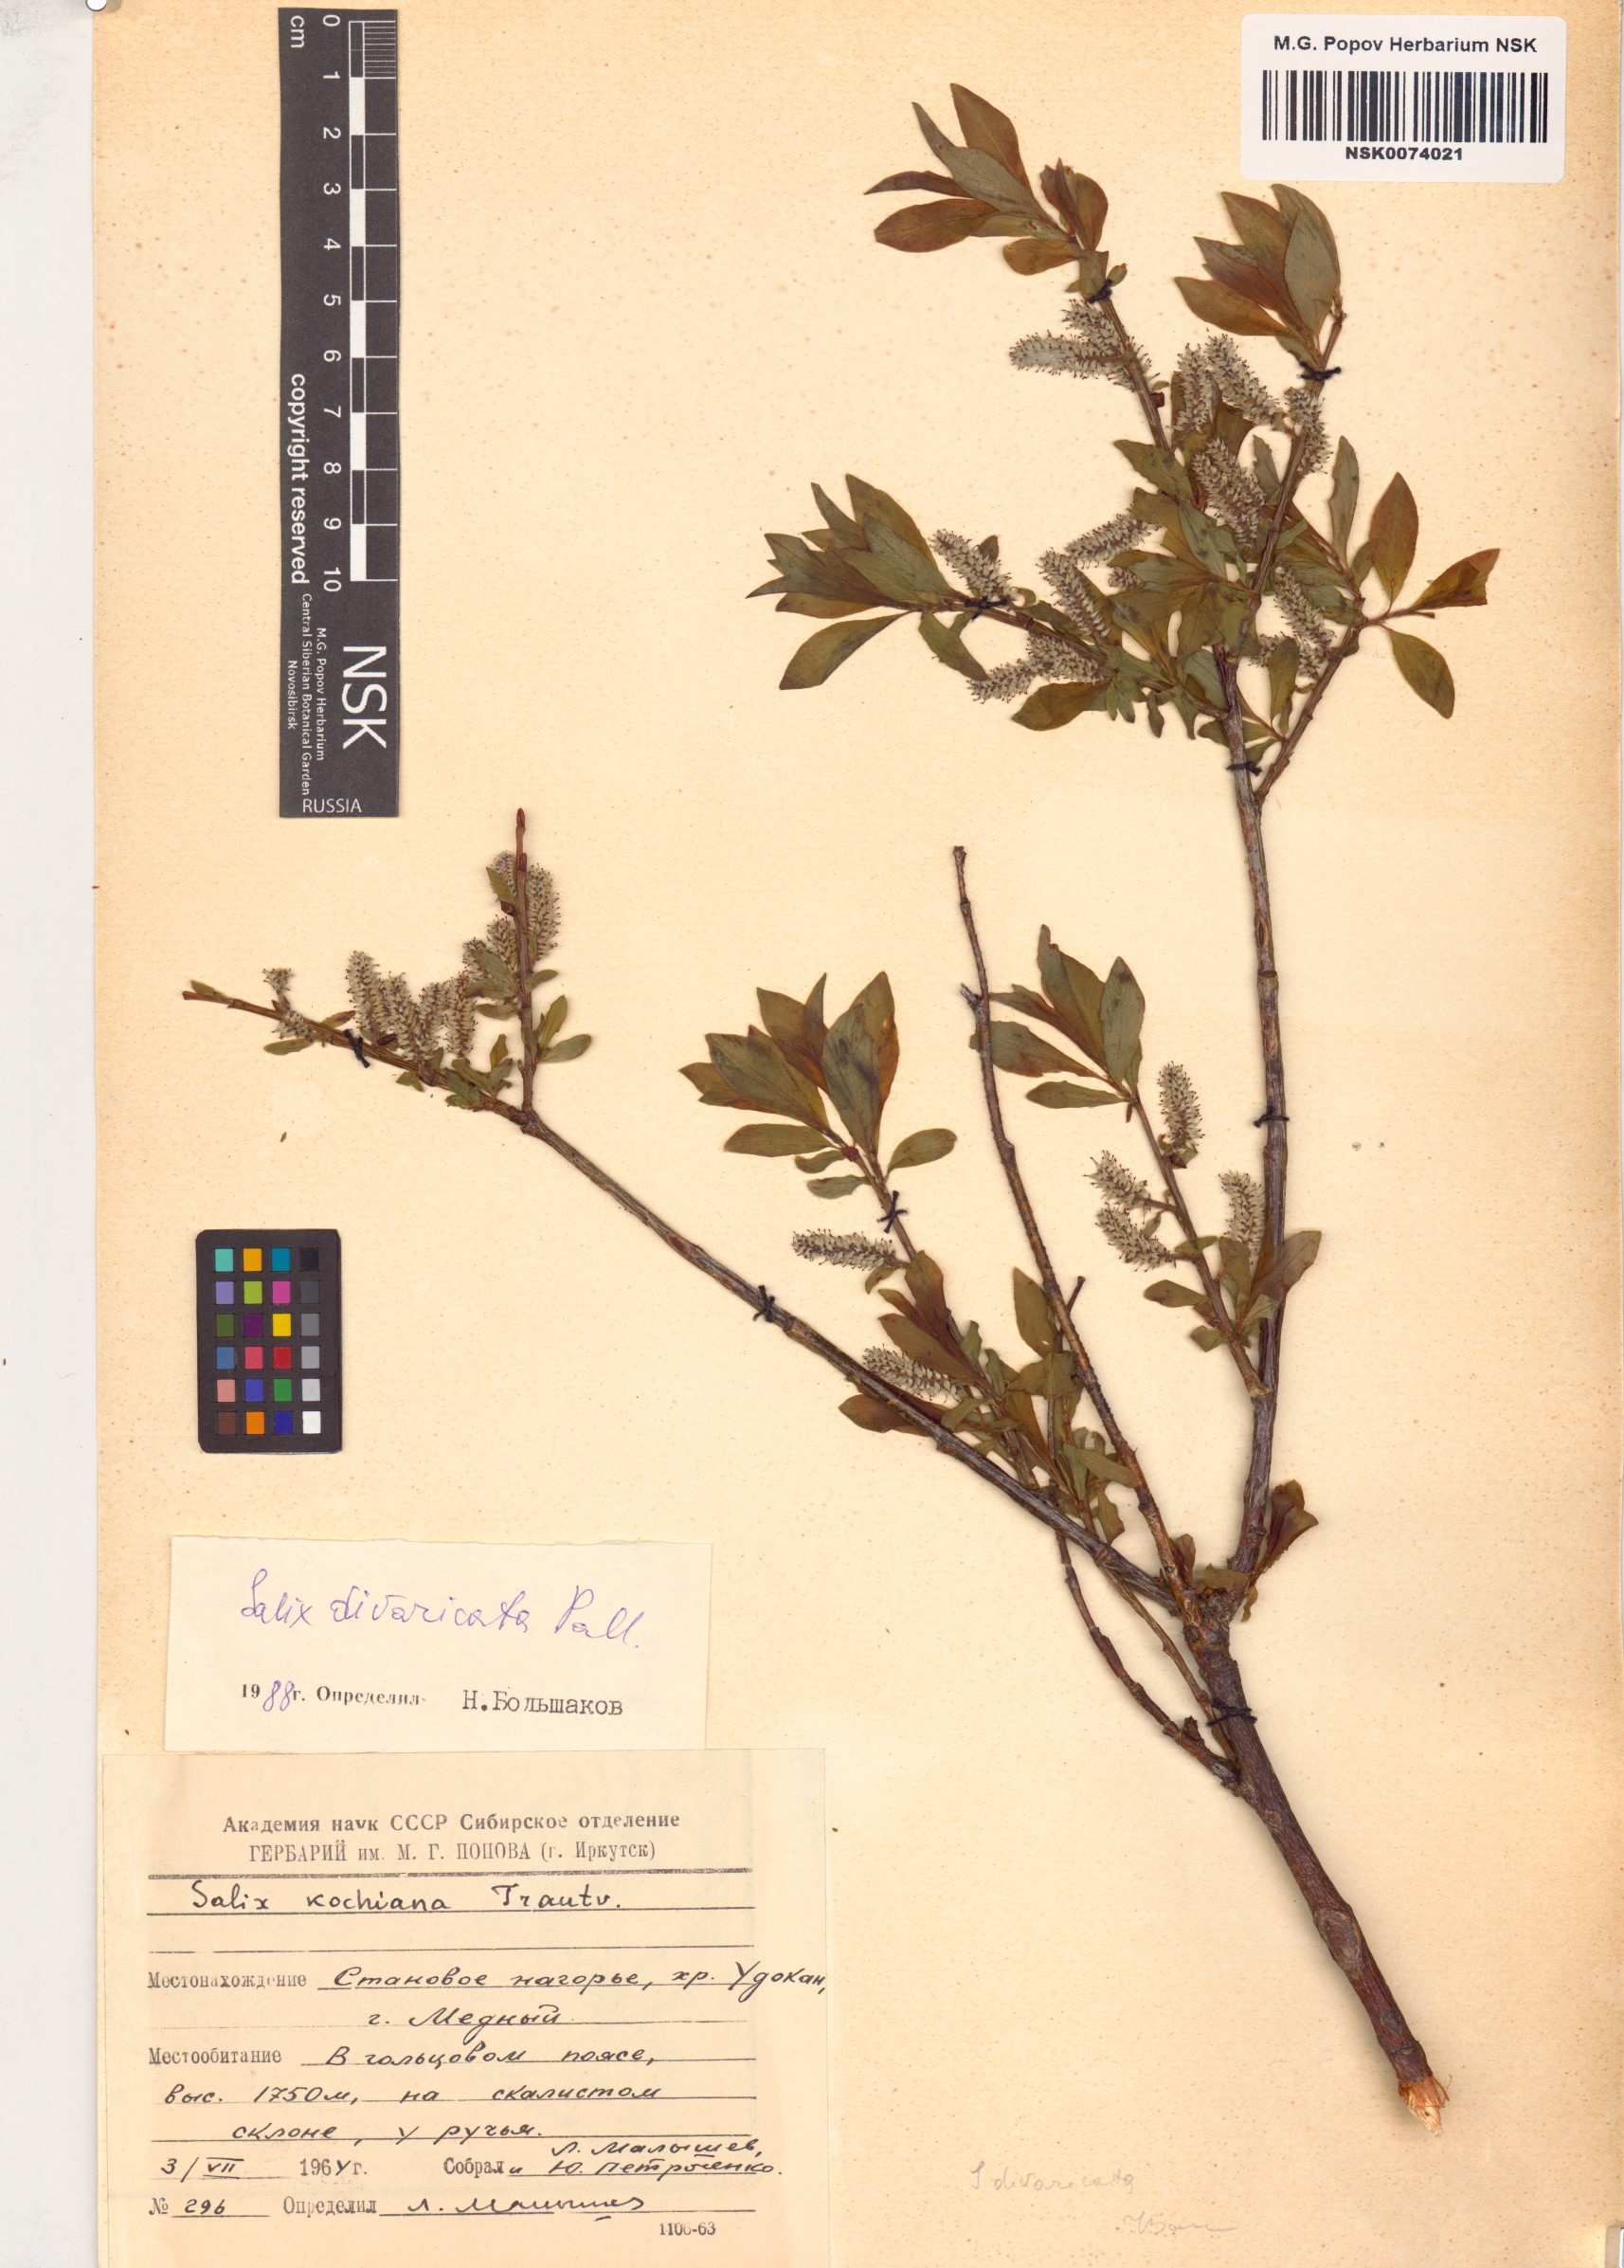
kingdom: Plantae
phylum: Tracheophyta
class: Magnoliopsida
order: Malpighiales
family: Salicaceae
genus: Salix
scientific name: Salix divaricata
